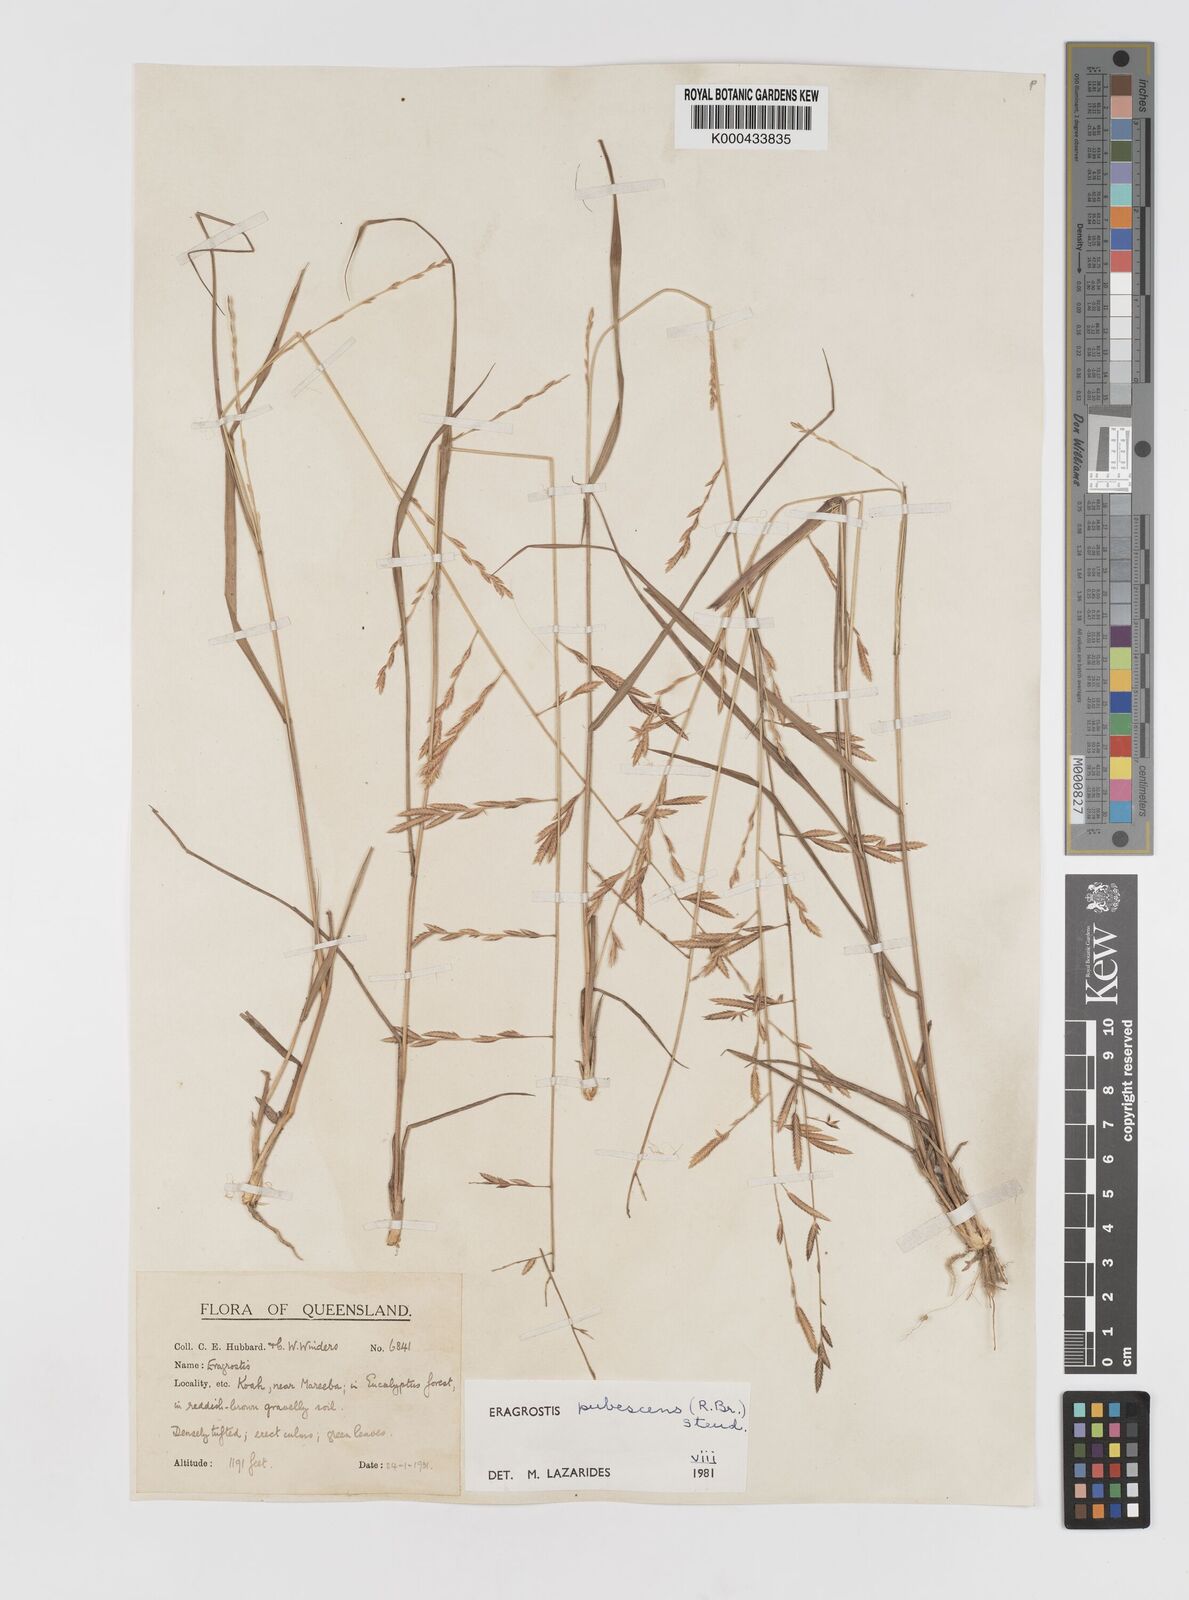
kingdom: Plantae
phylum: Tracheophyta
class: Liliopsida
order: Poales
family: Poaceae
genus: Eragrostis
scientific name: Eragrostis pubescens
